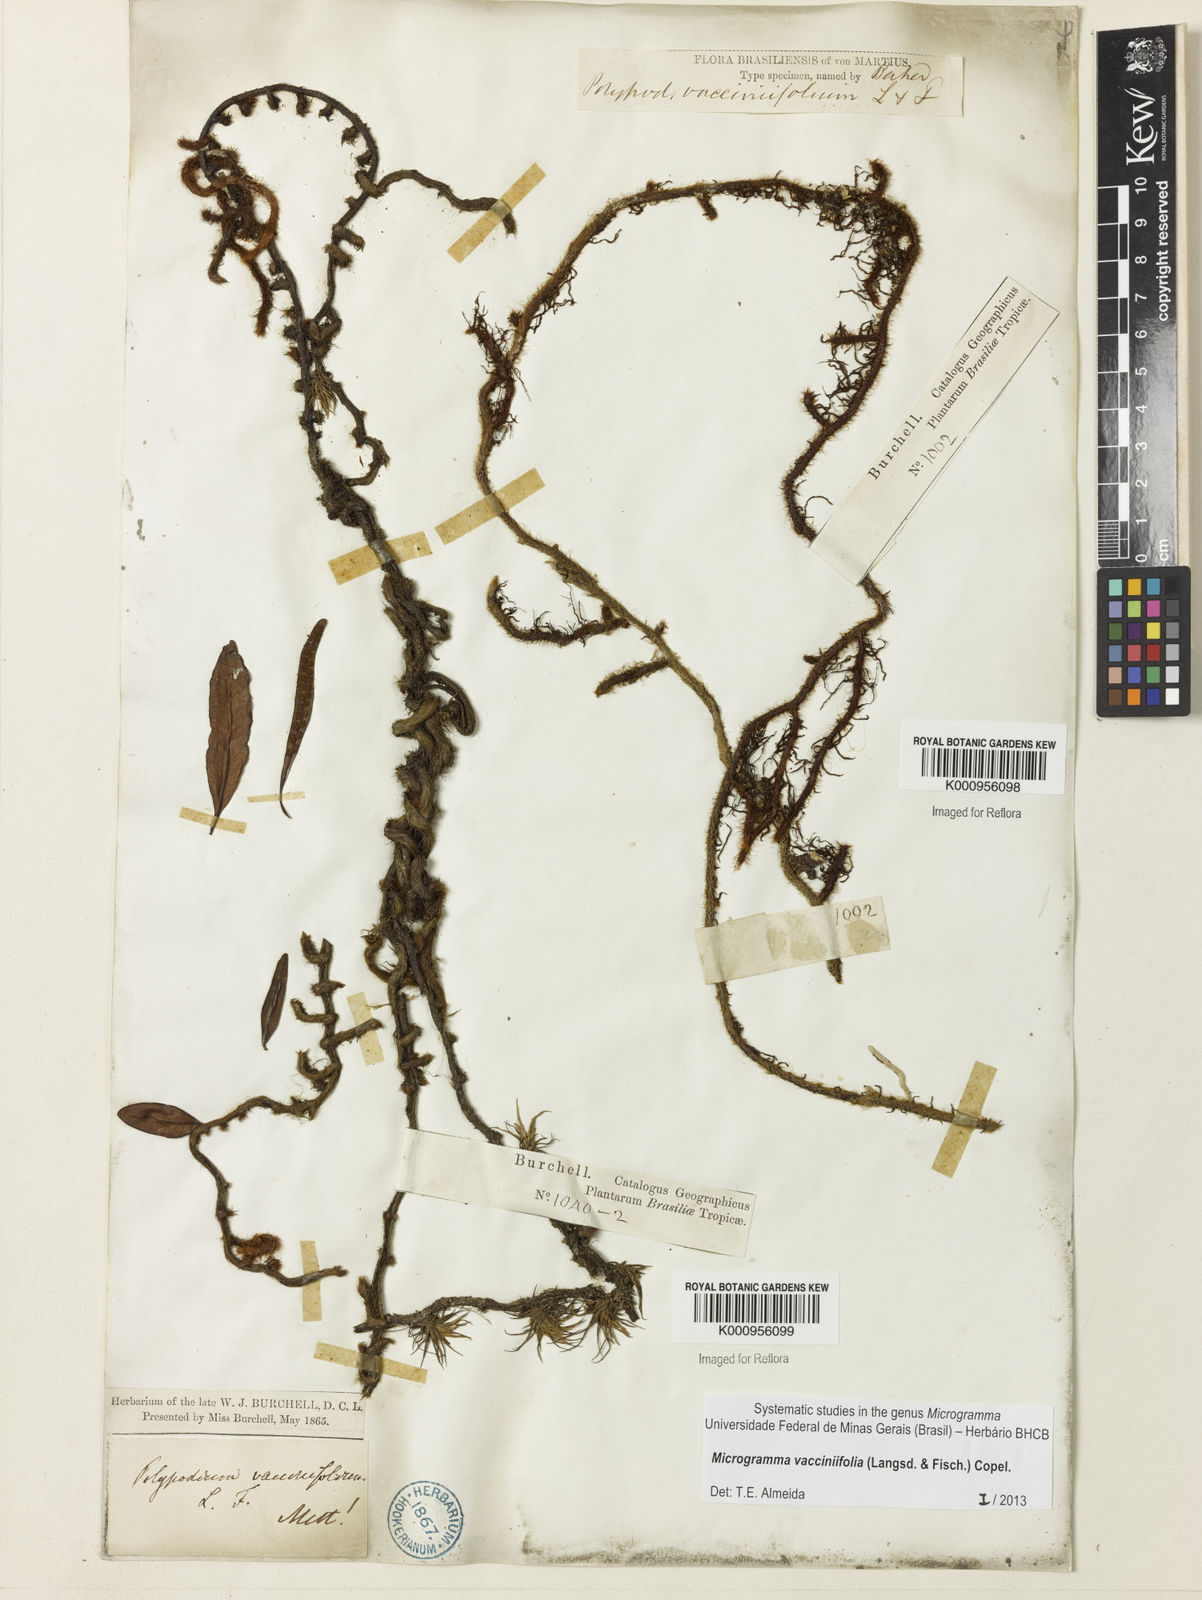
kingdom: Plantae
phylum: Tracheophyta
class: Polypodiopsida
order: Polypodiales
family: Polypodiaceae
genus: Phlebodium
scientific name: Phlebodium
